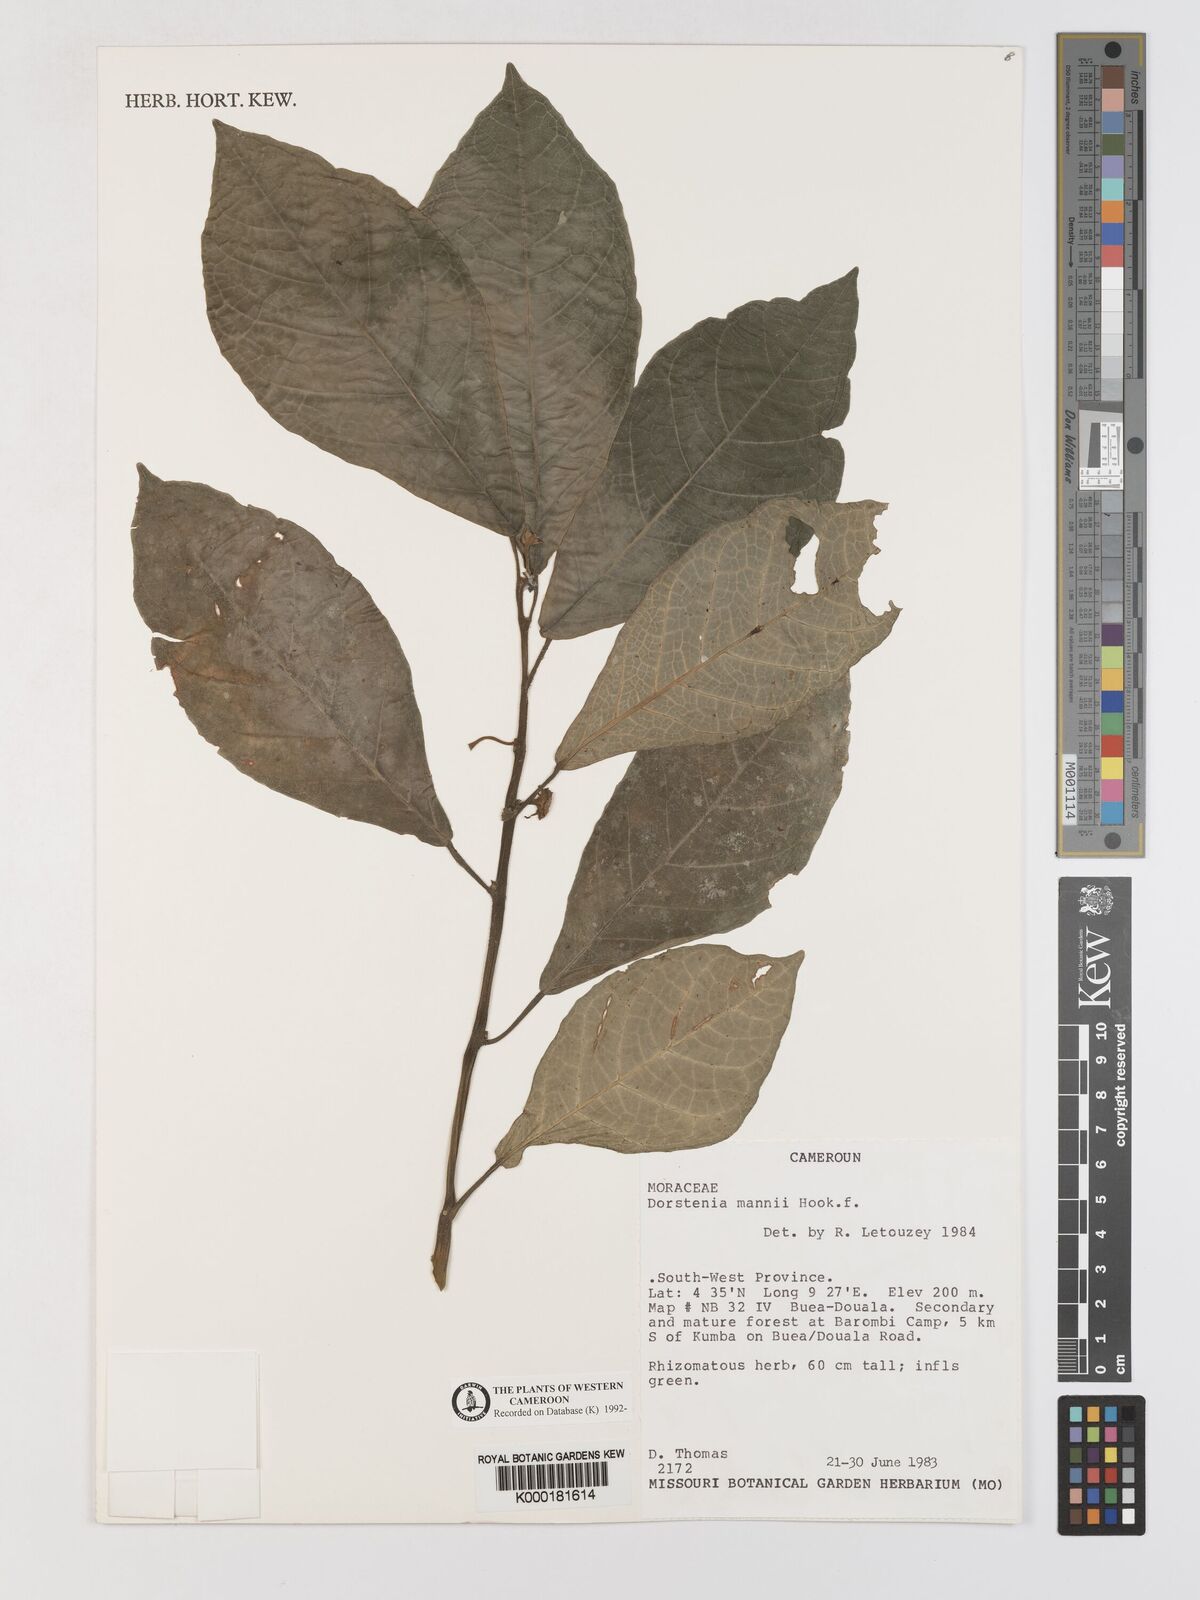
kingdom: Plantae
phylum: Tracheophyta
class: Magnoliopsida
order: Rosales
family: Moraceae
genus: Dorstenia
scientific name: Dorstenia mannii
